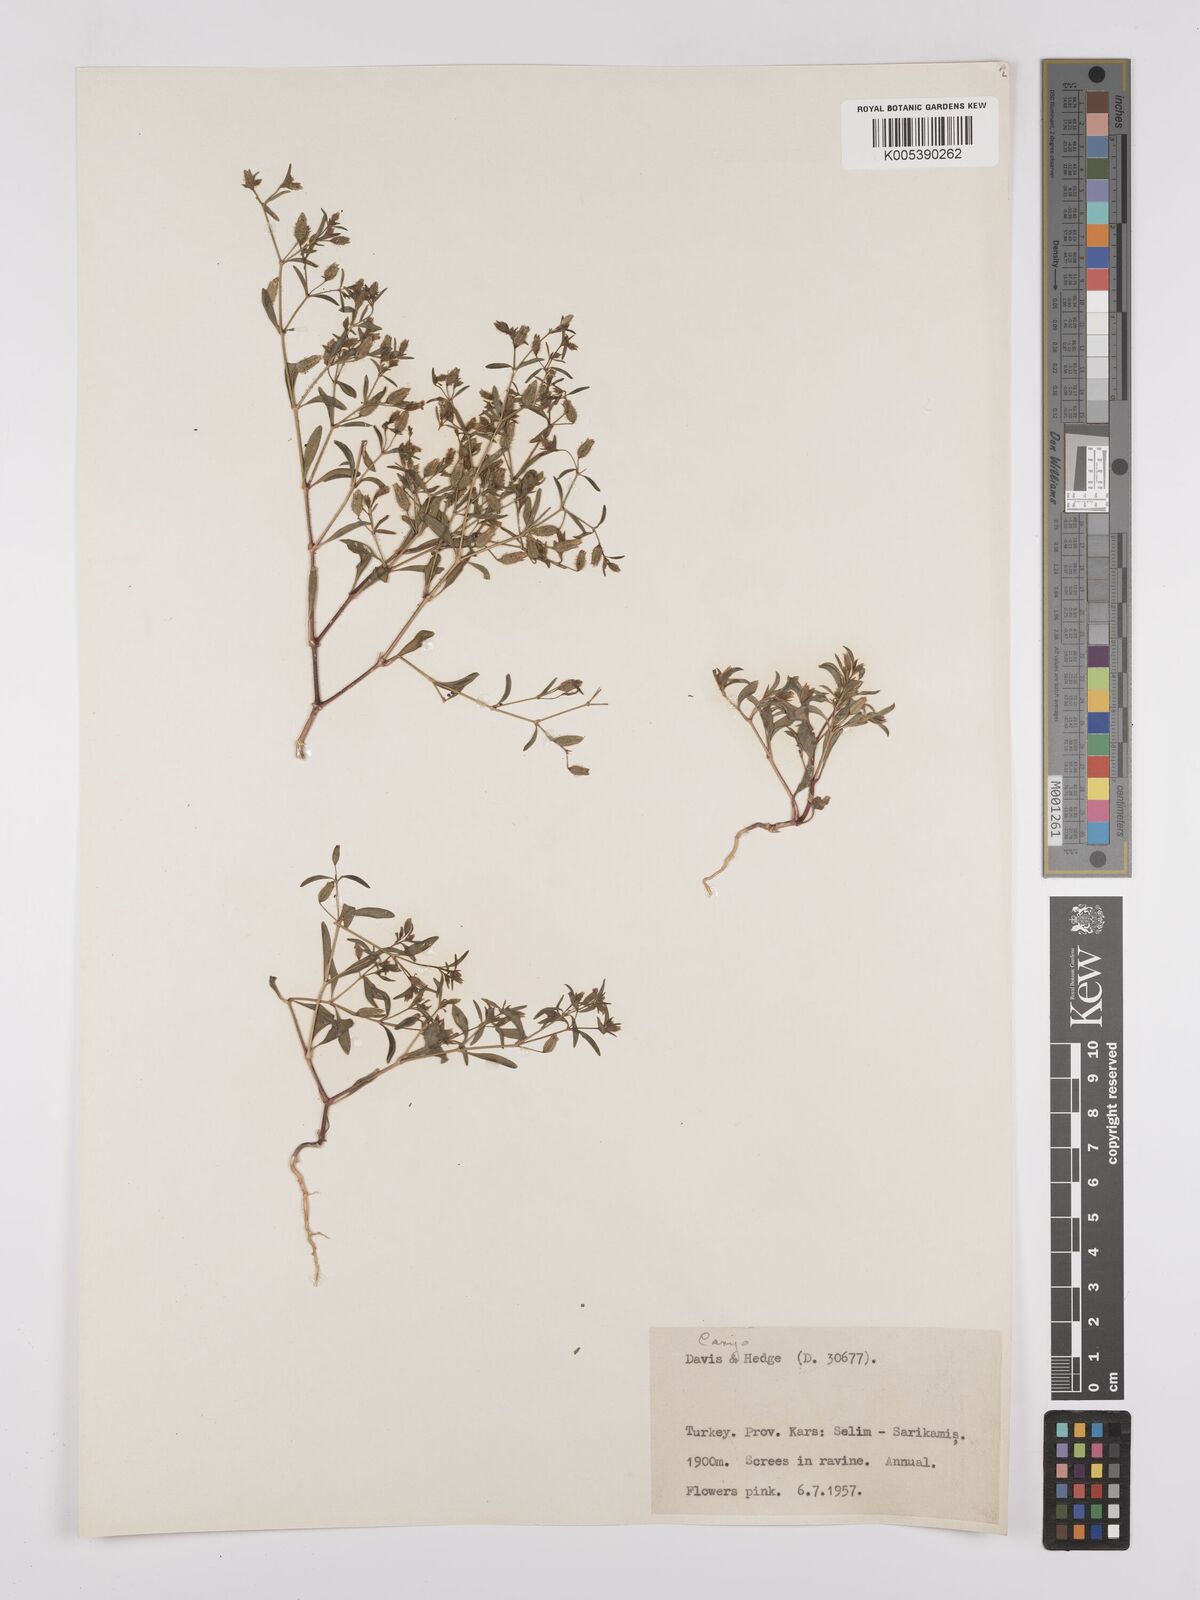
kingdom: Plantae
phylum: Tracheophyta
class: Magnoliopsida
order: Caryophyllales
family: Caryophyllaceae
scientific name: Caryophyllaceae
